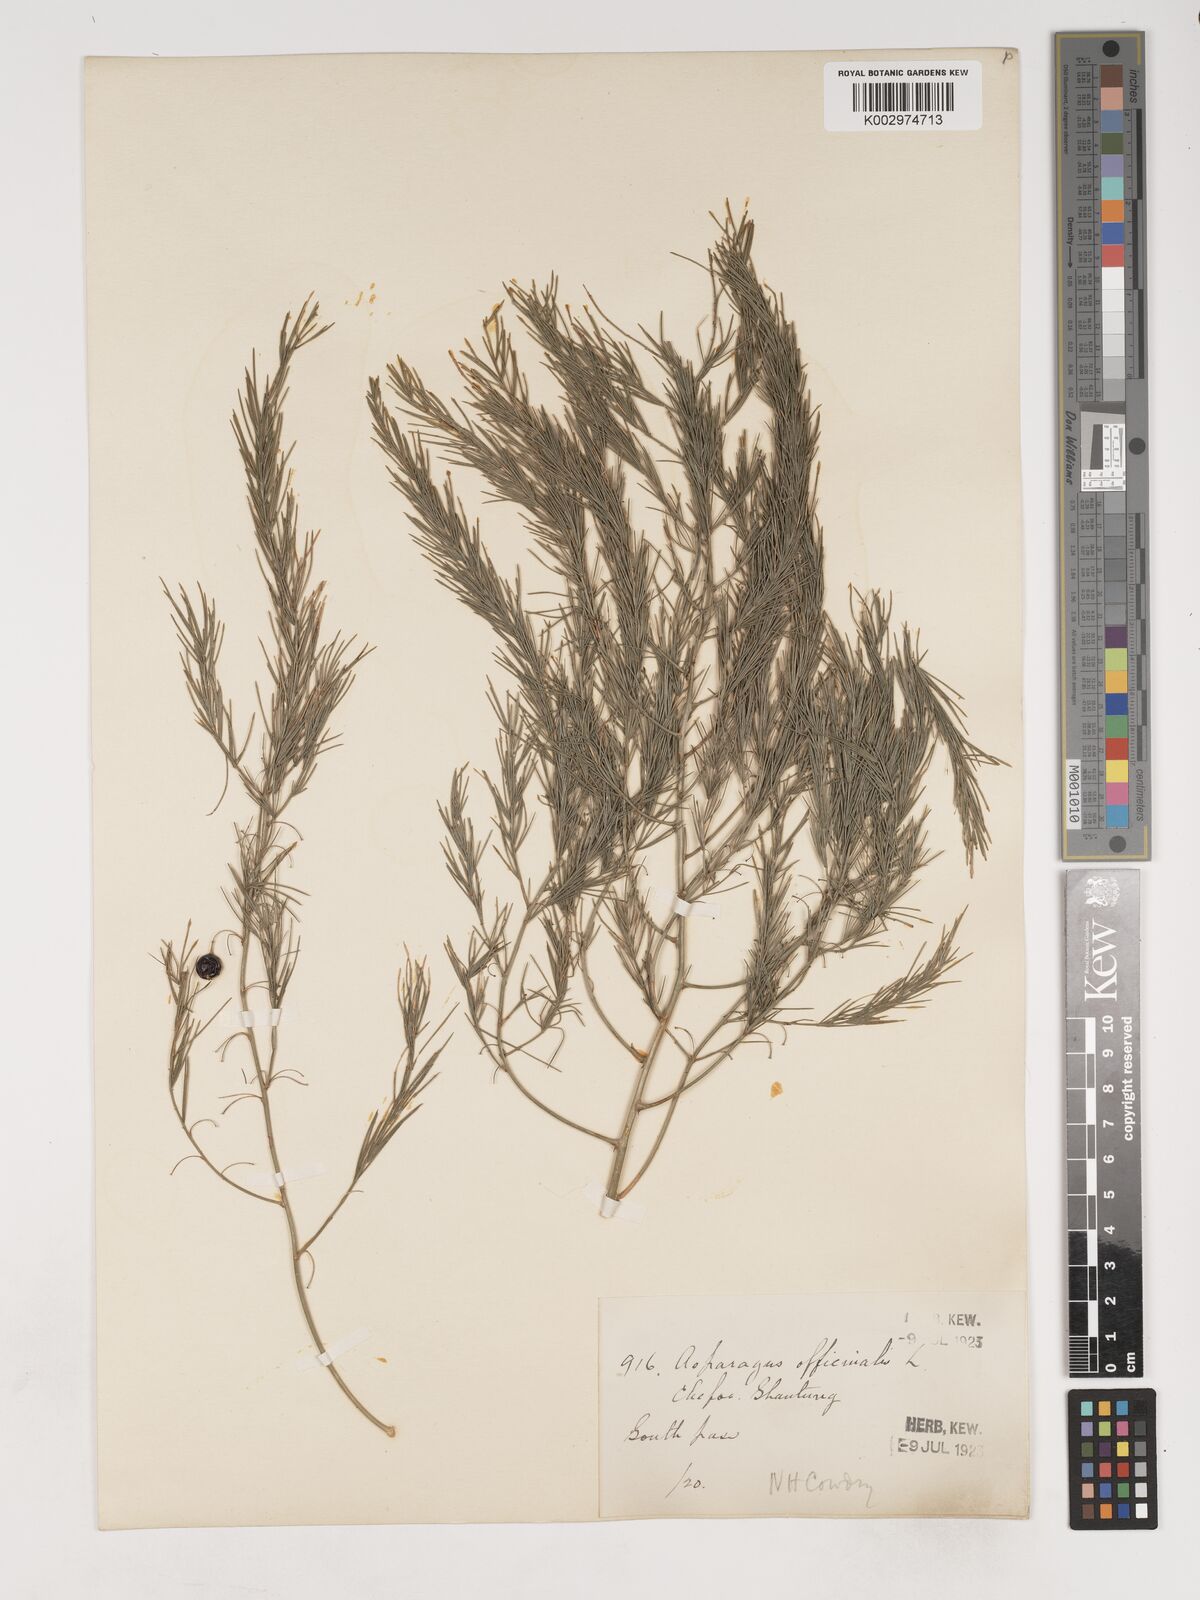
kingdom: Plantae
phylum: Tracheophyta
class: Liliopsida
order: Asparagales
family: Asparagaceae
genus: Asparagus
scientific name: Asparagus oligoclonos
